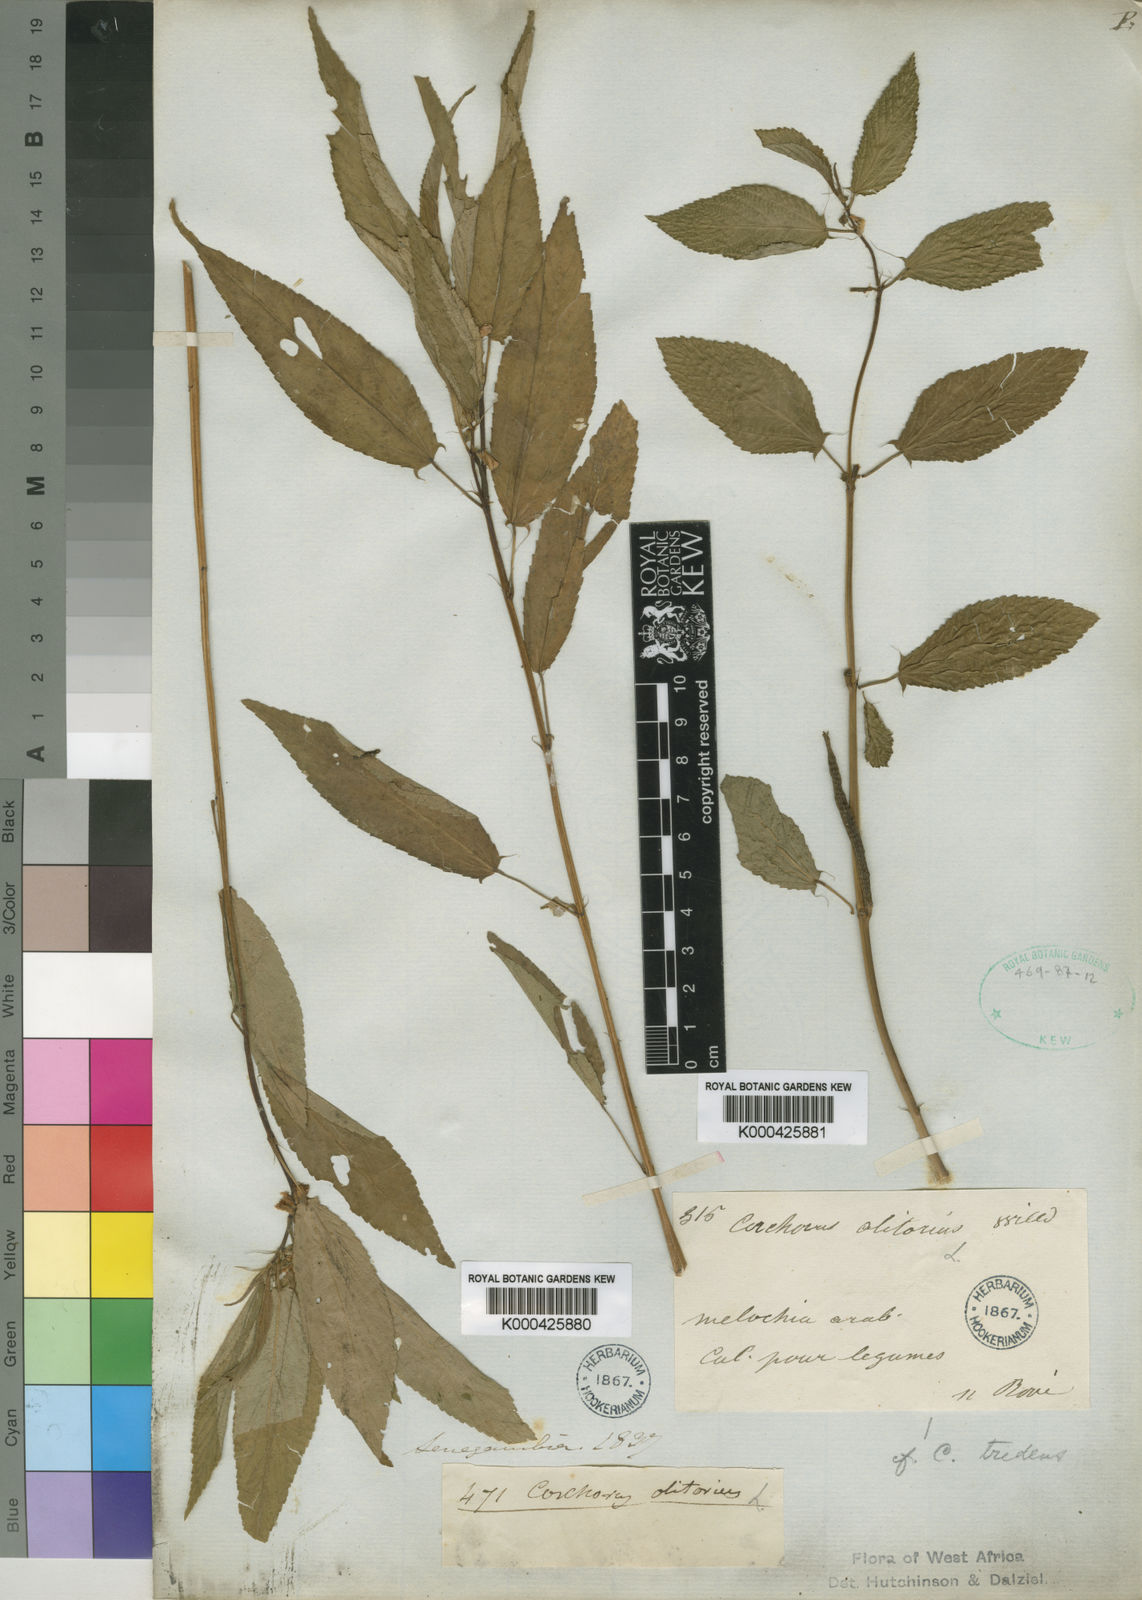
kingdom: Plantae
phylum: Tracheophyta
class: Magnoliopsida
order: Malvales
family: Malvaceae
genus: Corchorus
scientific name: Corchorus olitorius
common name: Tossa jute
